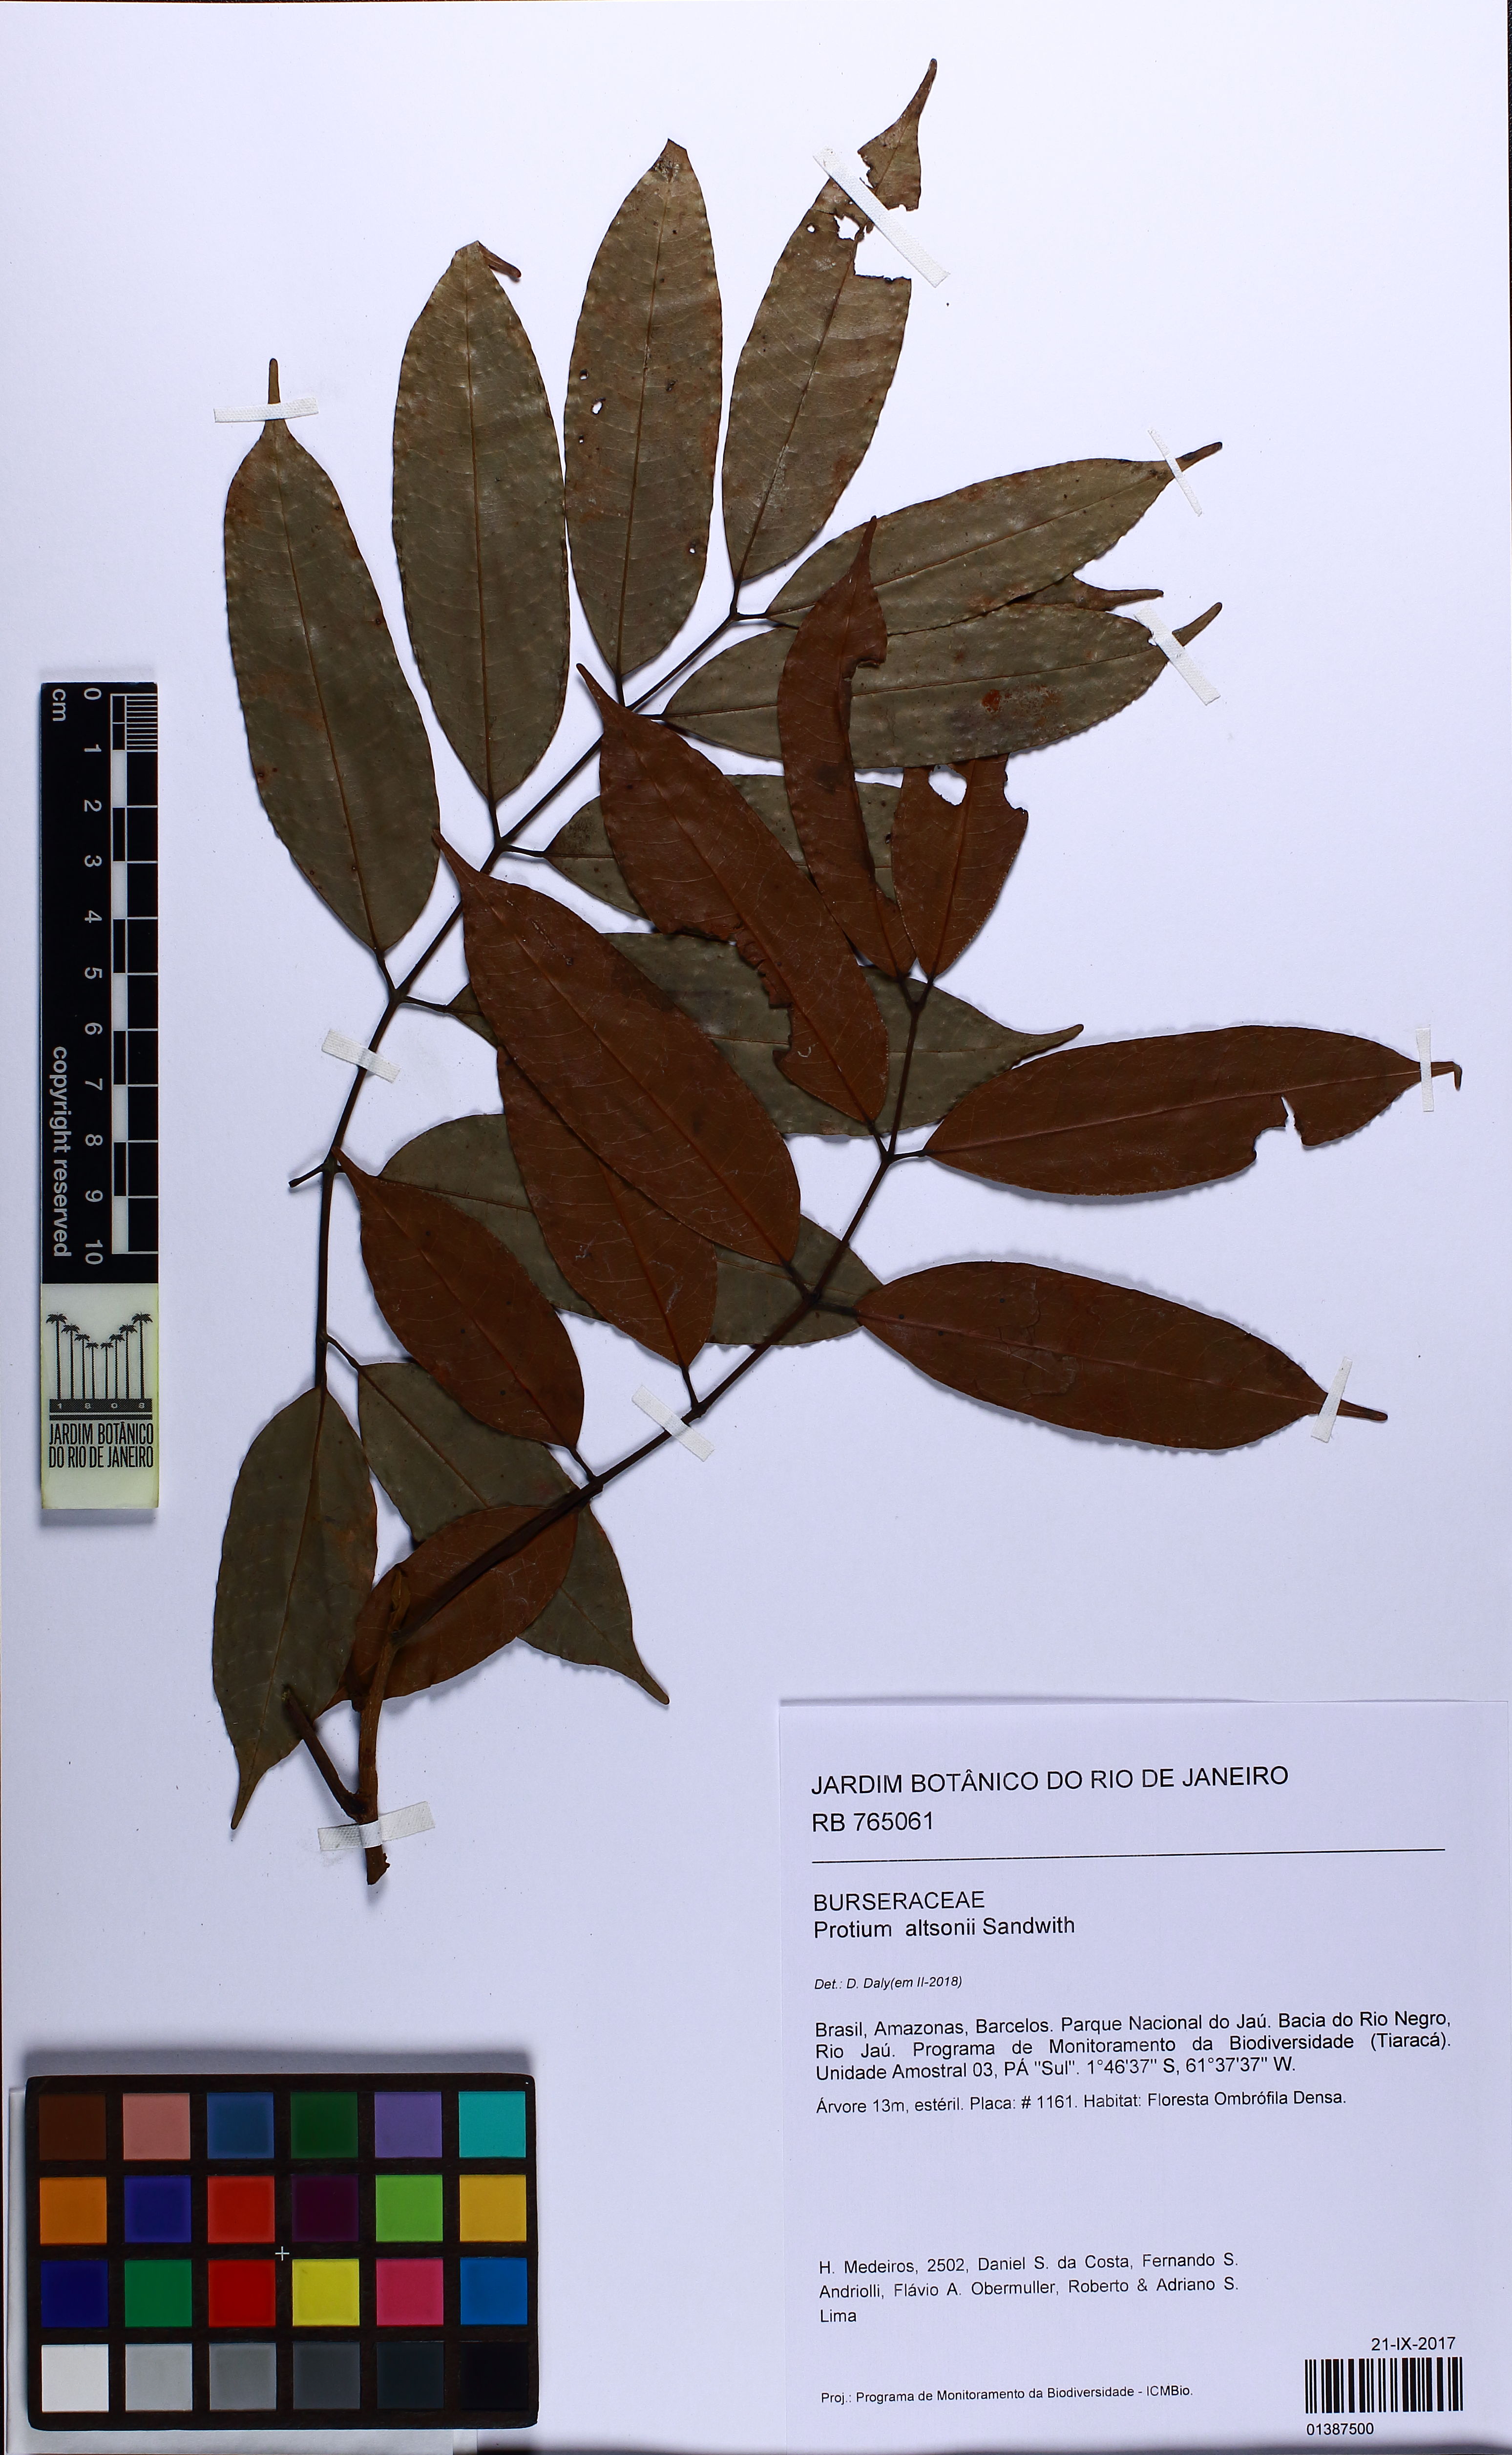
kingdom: Plantae
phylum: Tracheophyta
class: Magnoliopsida
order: Sapindales
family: Burseraceae
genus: Protium
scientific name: Protium altsonii
